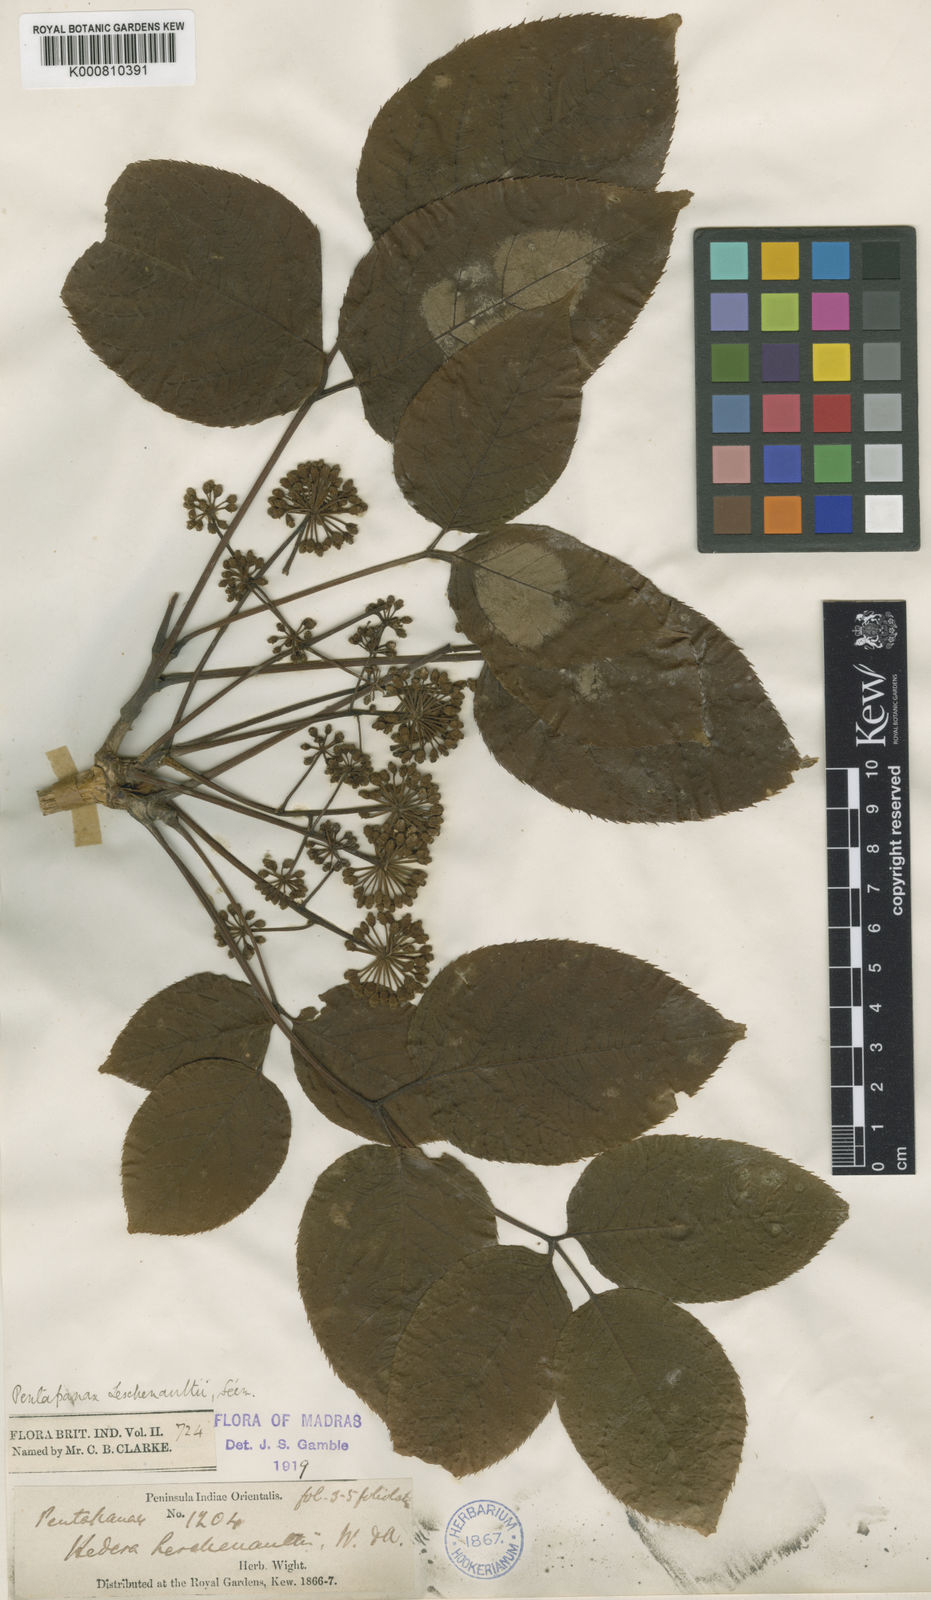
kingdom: Plantae
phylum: Tracheophyta
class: Magnoliopsida
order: Apiales
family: Araliaceae
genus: Aralia
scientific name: Aralia leschenaultii
